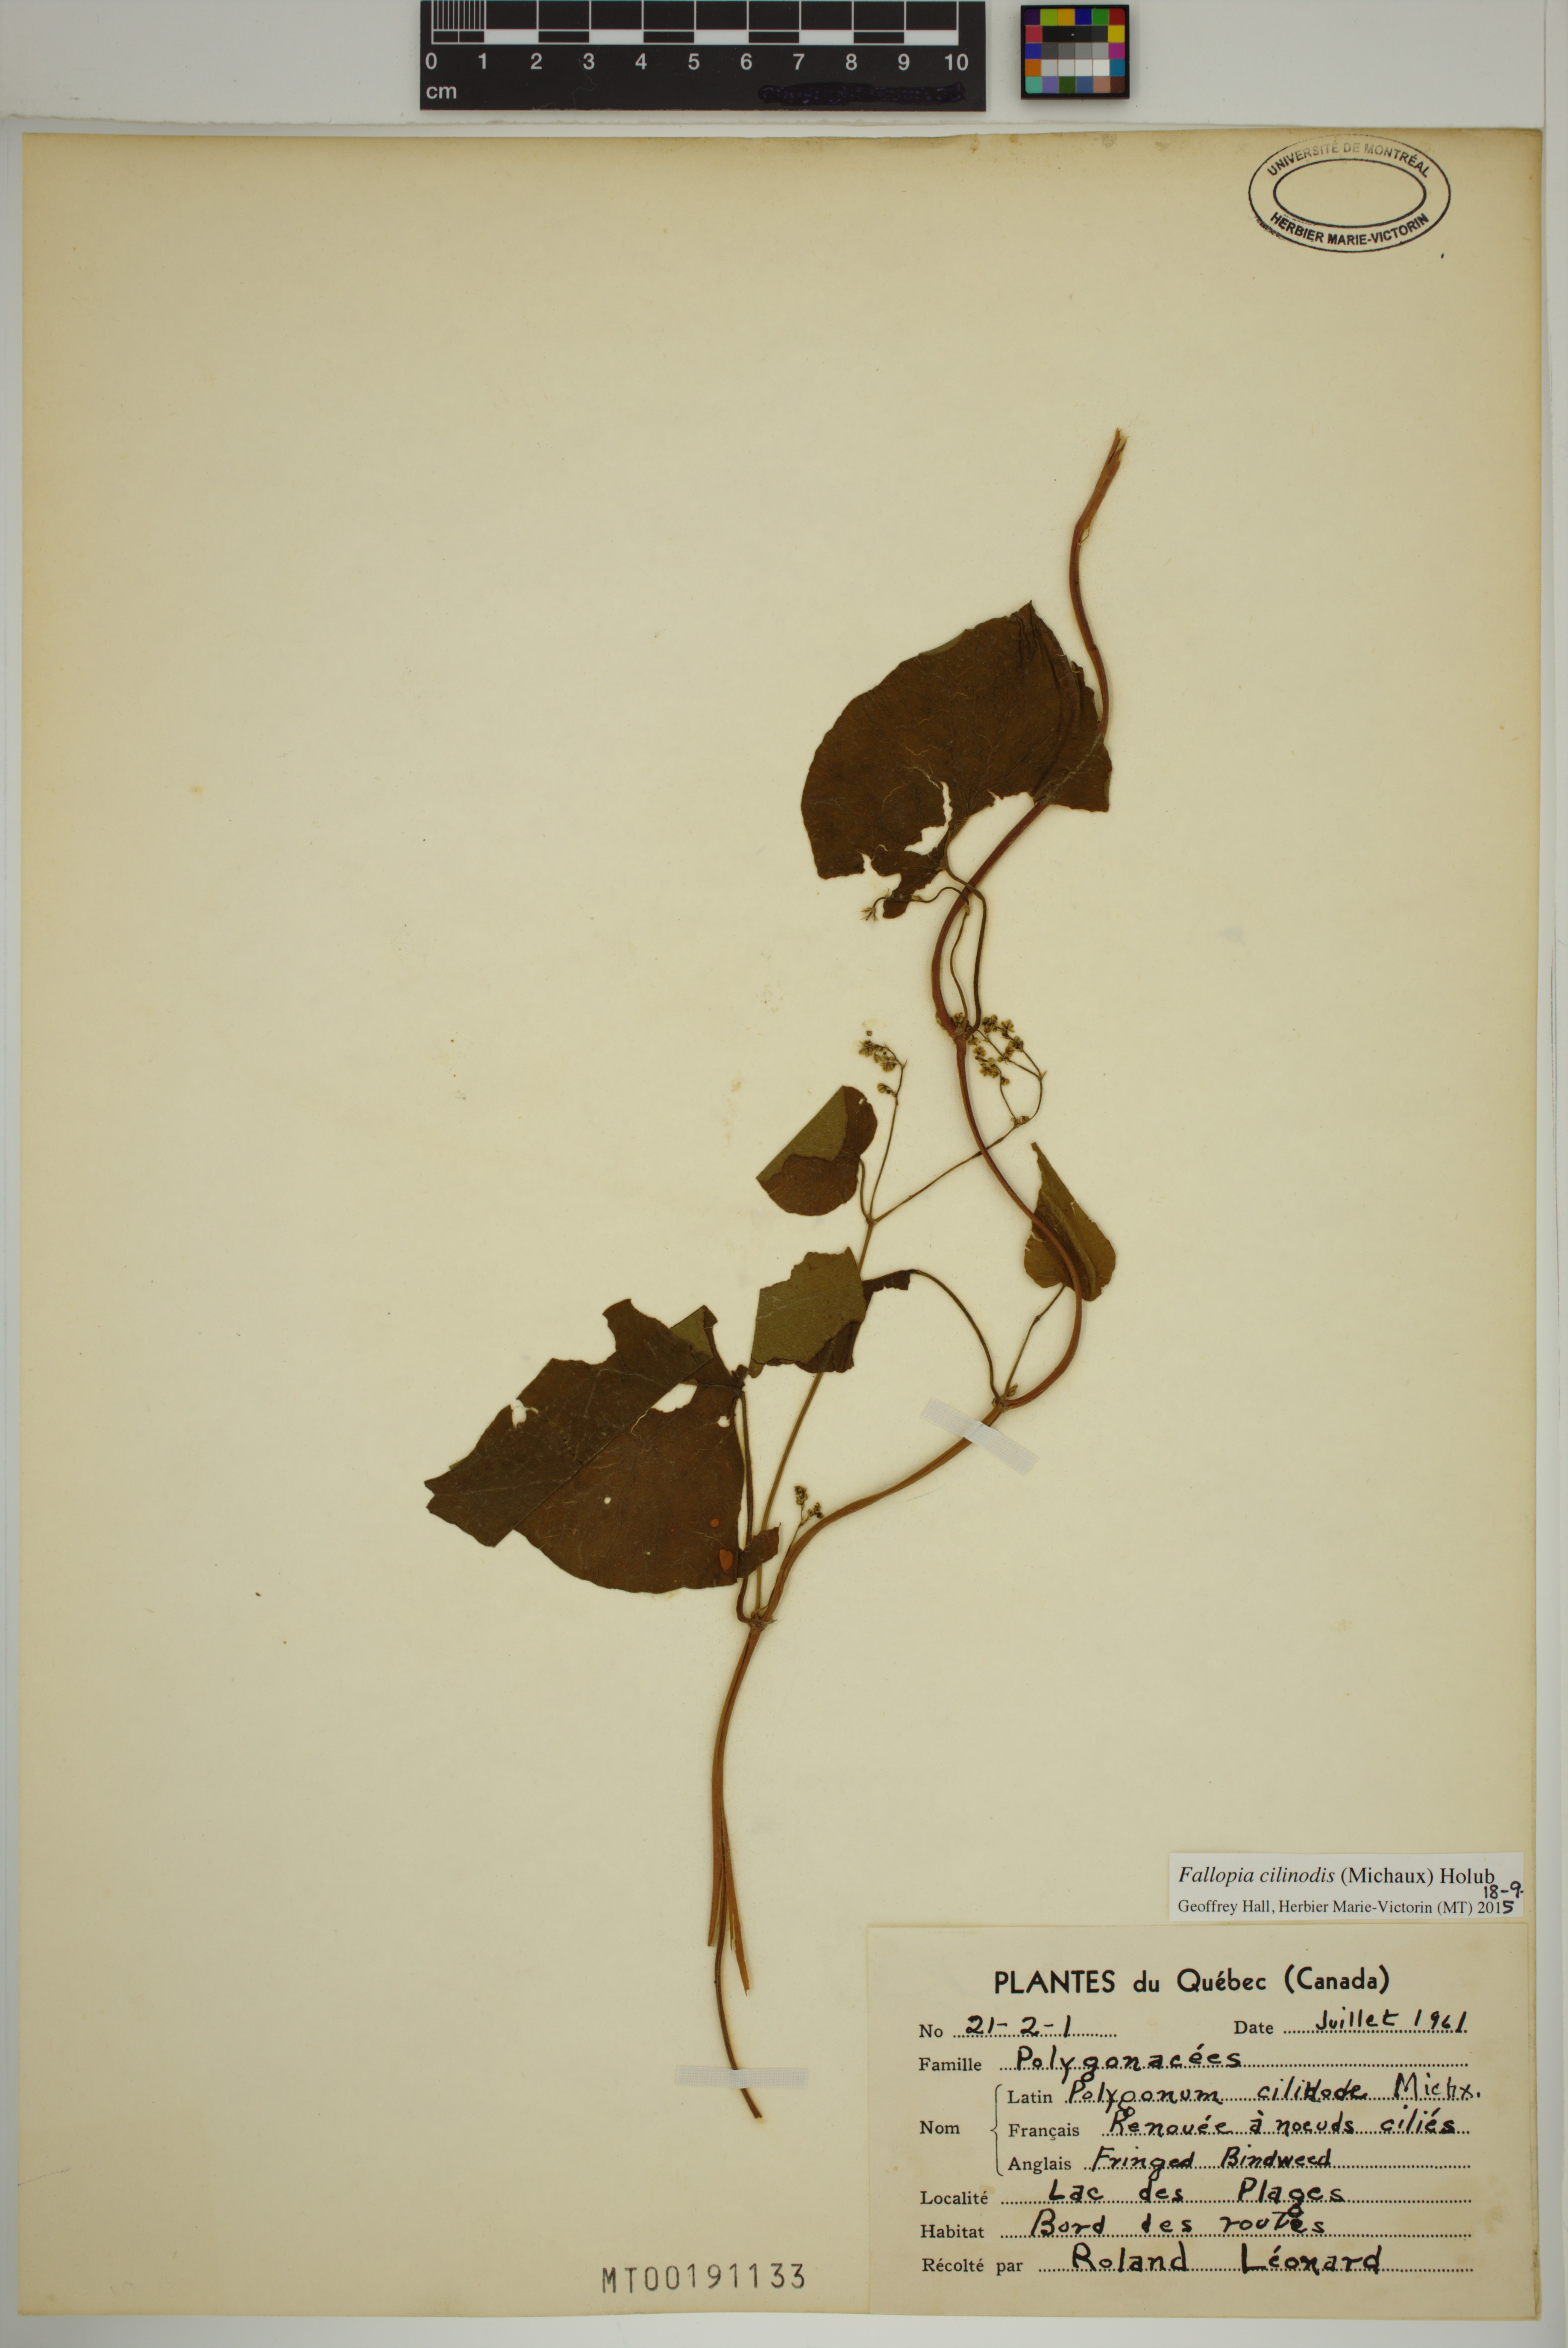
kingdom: Plantae
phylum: Tracheophyta
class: Magnoliopsida
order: Caryophyllales
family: Polygonaceae
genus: Parogonum
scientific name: Parogonum ciliinode
